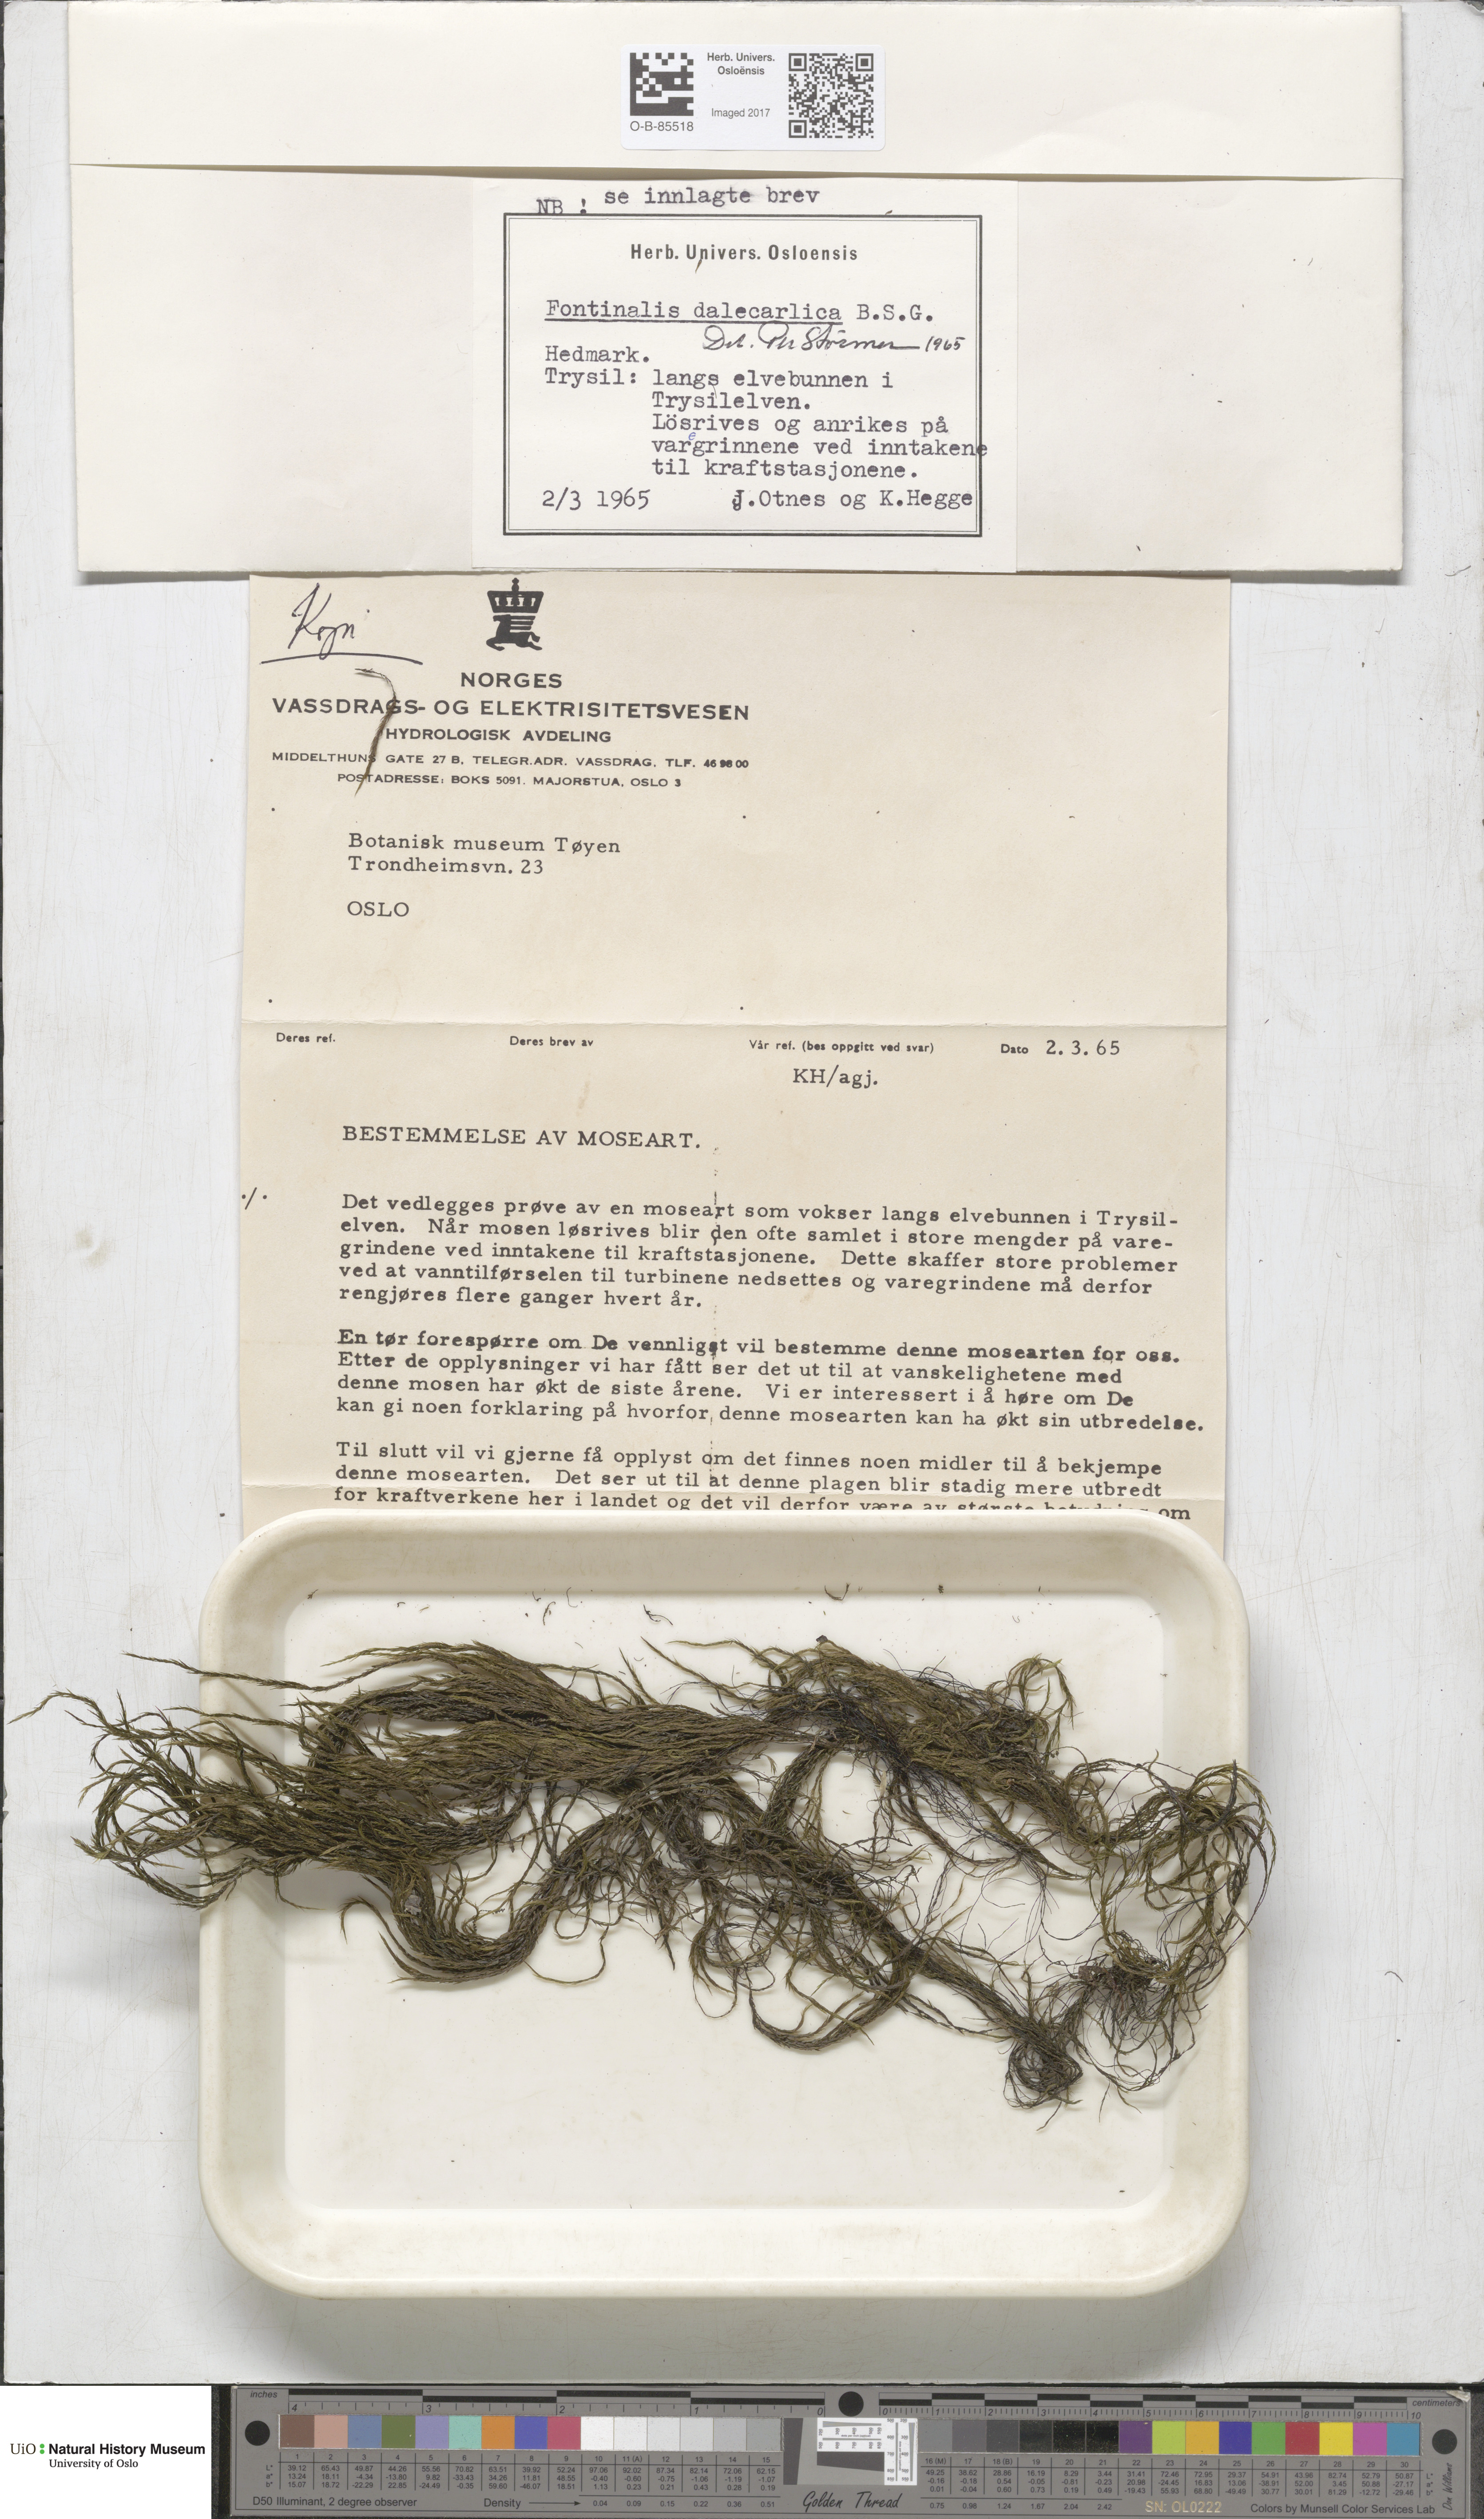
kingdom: Plantae
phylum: Bryophyta
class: Bryopsida
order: Hypnales
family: Fontinalaceae
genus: Fontinalis
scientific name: Fontinalis dalecarlica
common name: Slender water moss
